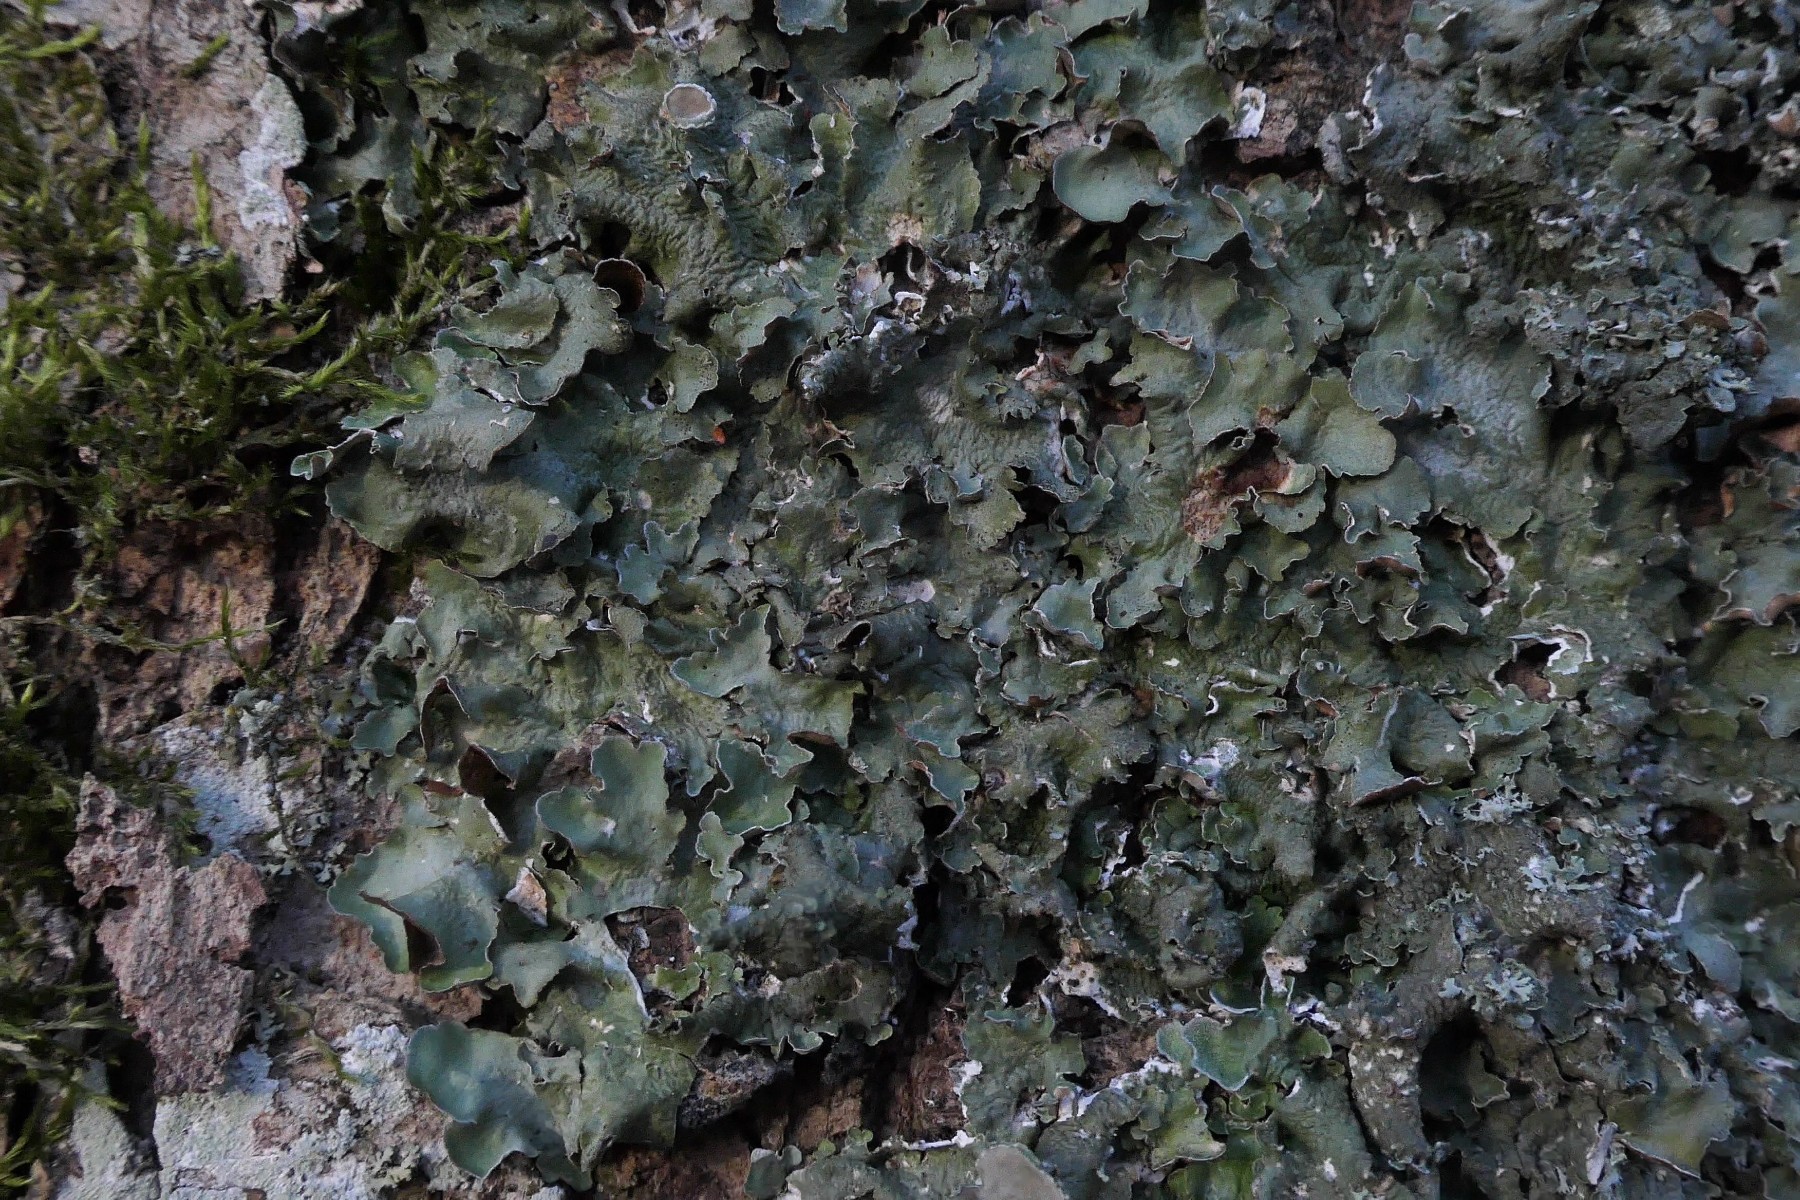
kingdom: Fungi
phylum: Ascomycota
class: Lecanoromycetes
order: Lecanorales
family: Parmeliaceae
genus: Pleurosticta
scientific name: Pleurosticta acetabulum
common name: stor skållav
